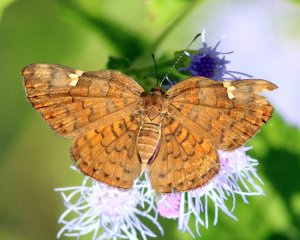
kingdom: Animalia
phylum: Arthropoda
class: Insecta
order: Lepidoptera
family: Lycaenidae
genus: Emesis
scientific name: Emesis emesia
